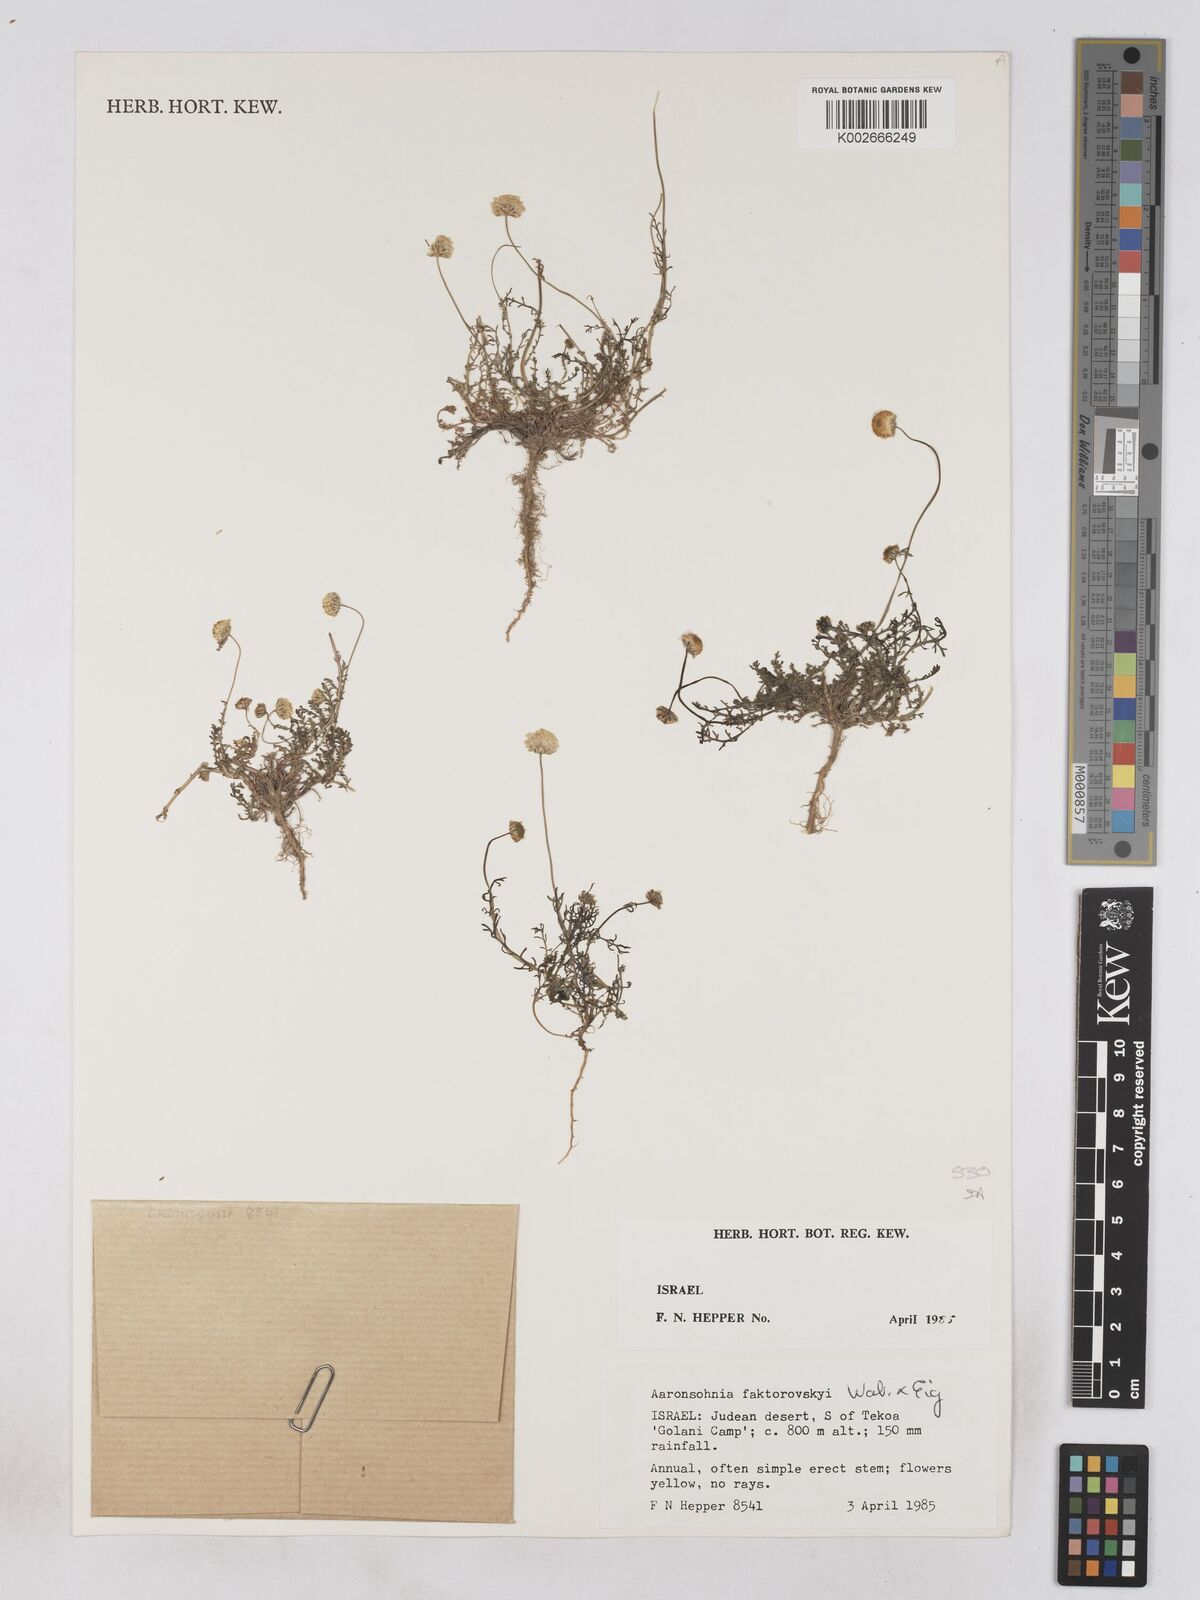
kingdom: Plantae
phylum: Tracheophyta
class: Magnoliopsida
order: Asterales
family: Asteraceae
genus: Otoglyphis
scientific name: Otoglyphis factorovskyi
